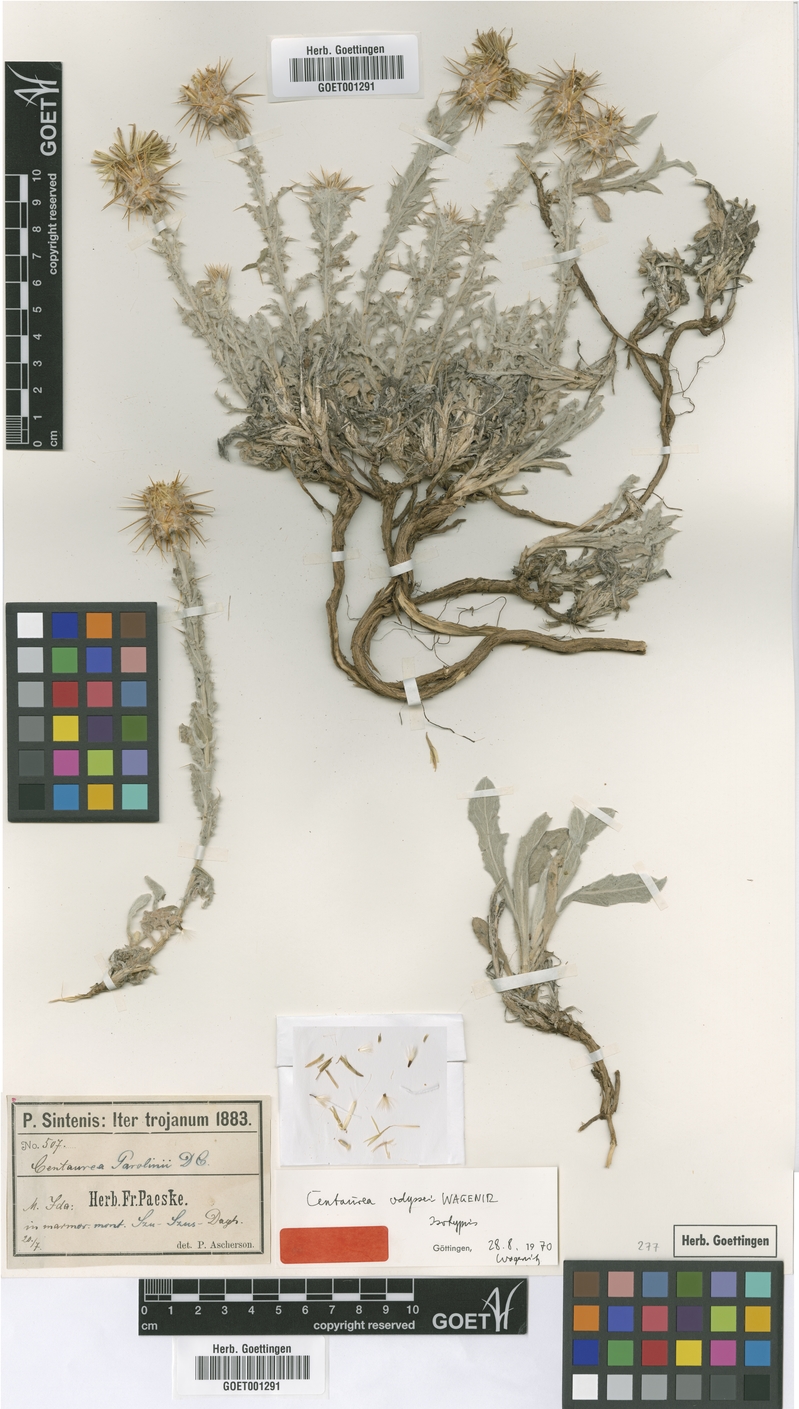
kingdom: Plantae
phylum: Tracheophyta
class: Magnoliopsida
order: Asterales
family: Asteraceae
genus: Centaurea
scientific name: Centaurea odyssei
